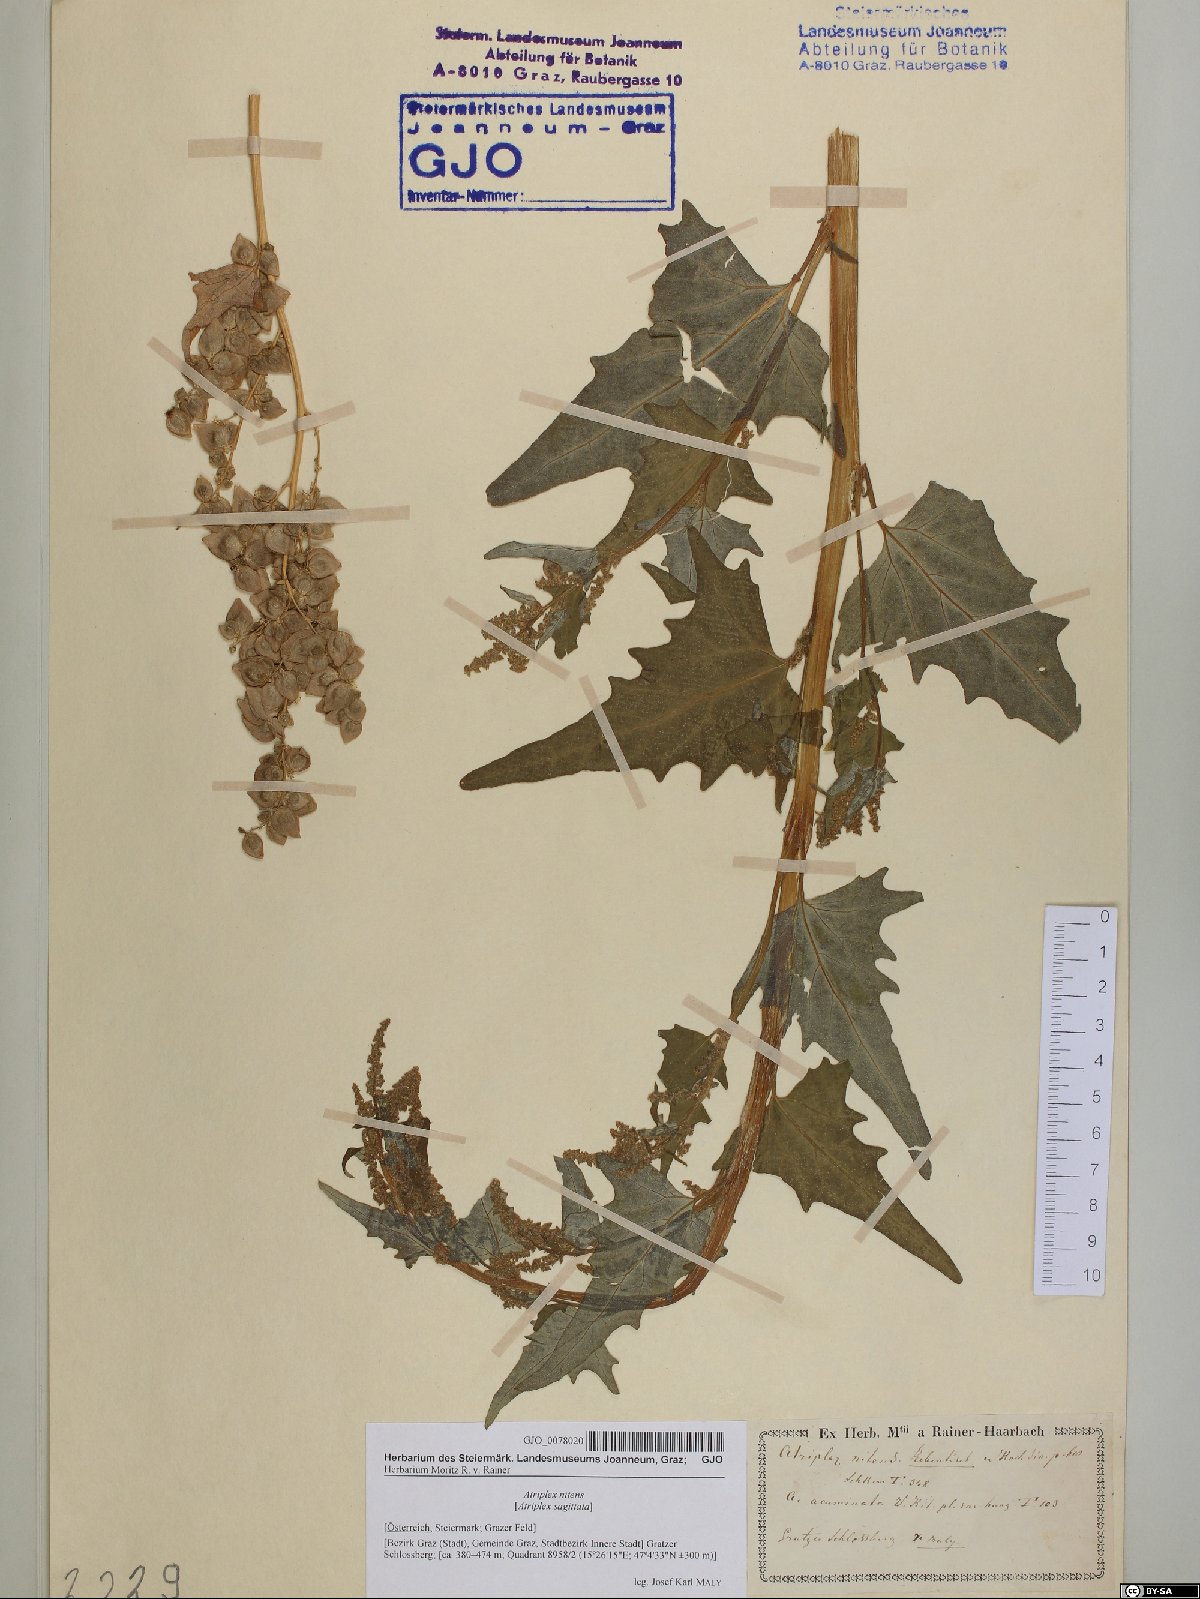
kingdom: Plantae
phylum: Tracheophyta
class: Magnoliopsida
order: Caryophyllales
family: Amaranthaceae
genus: Atriplex
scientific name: Atriplex sagittata
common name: Purple orache
